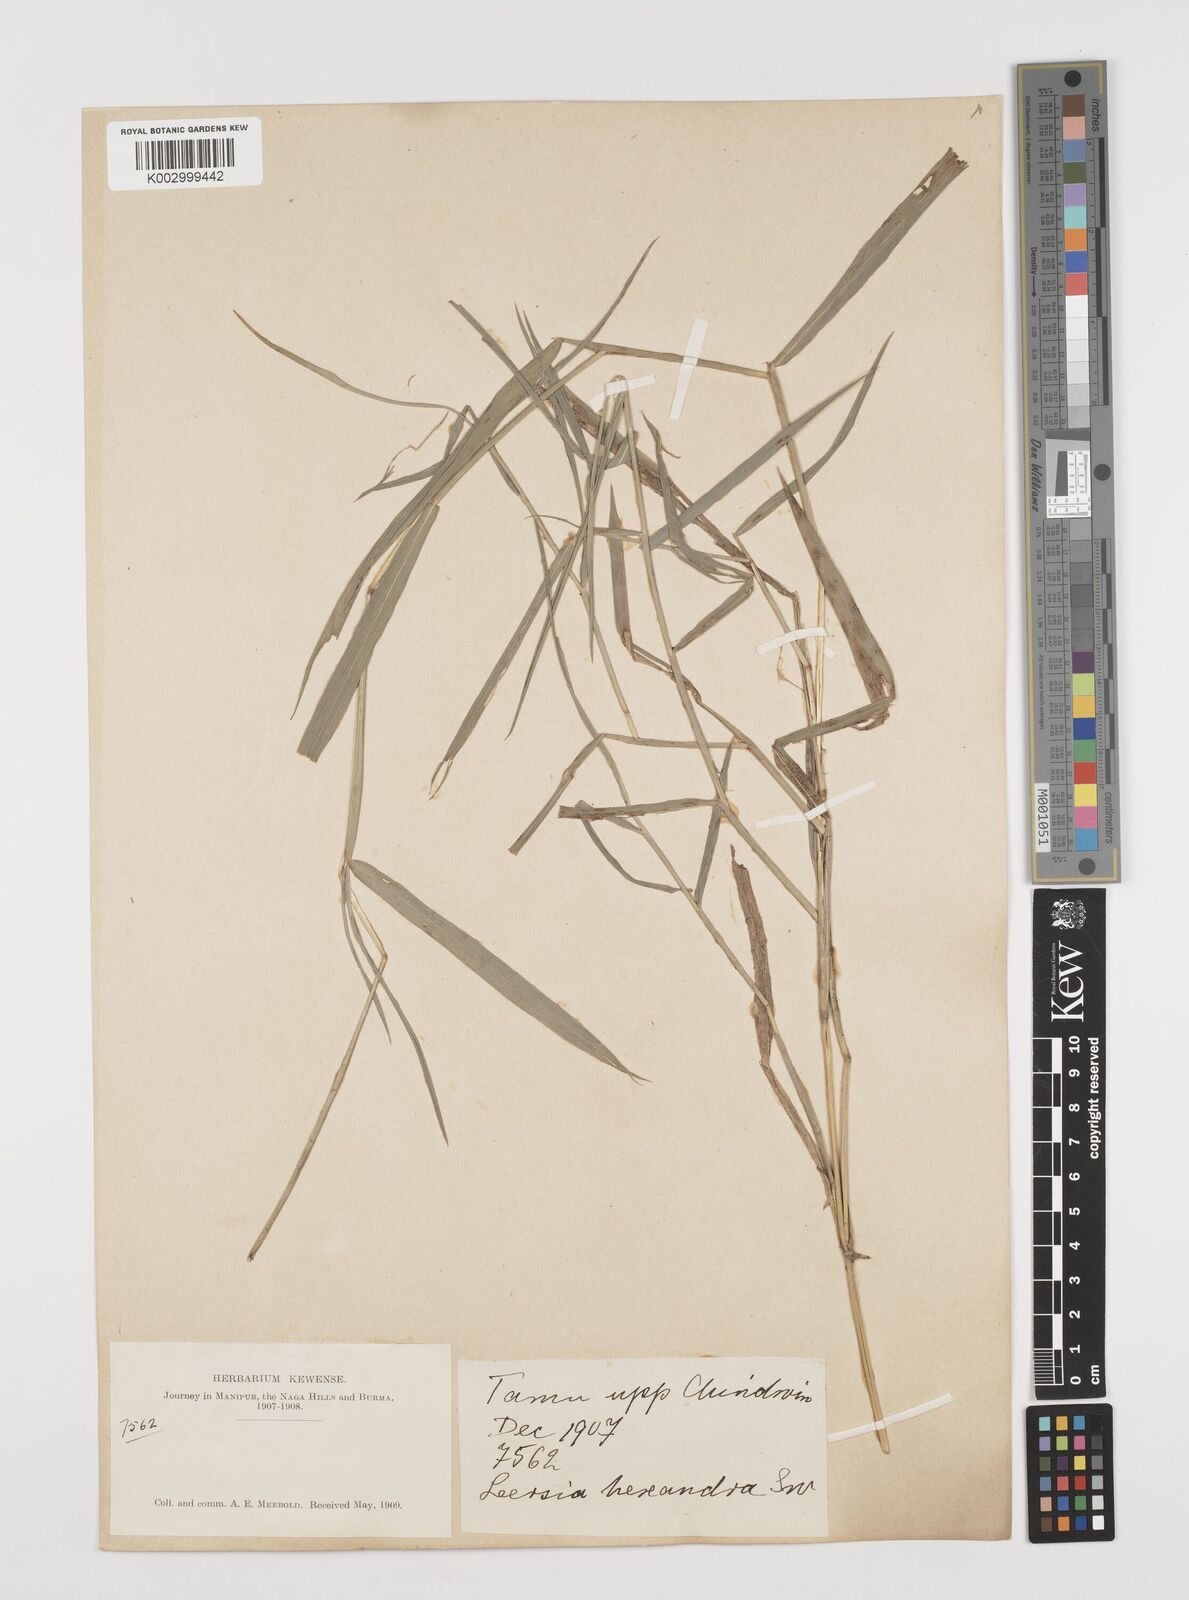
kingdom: Plantae
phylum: Tracheophyta
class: Liliopsida
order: Poales
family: Poaceae
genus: Leersia
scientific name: Leersia hexandra
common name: Southern cut grass
